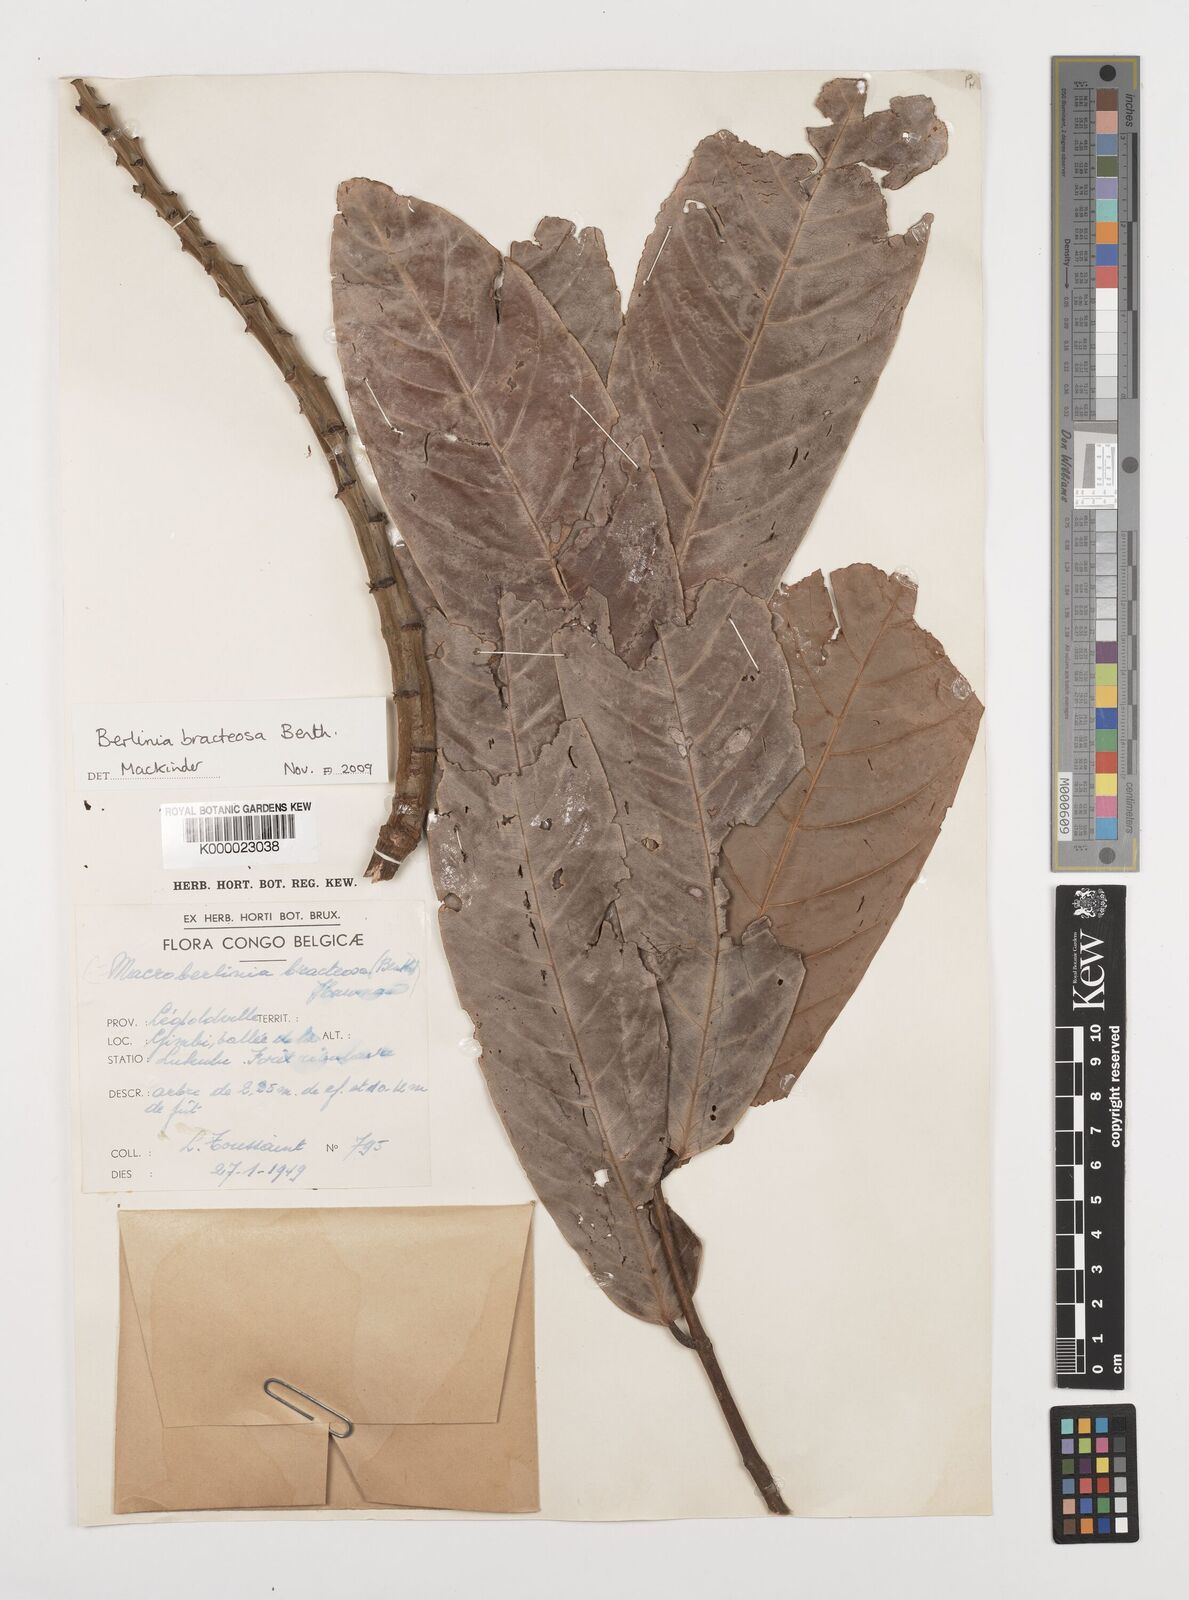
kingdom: Plantae
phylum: Tracheophyta
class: Magnoliopsida
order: Fabales
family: Fabaceae
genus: Berlinia
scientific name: Berlinia bracteosa
